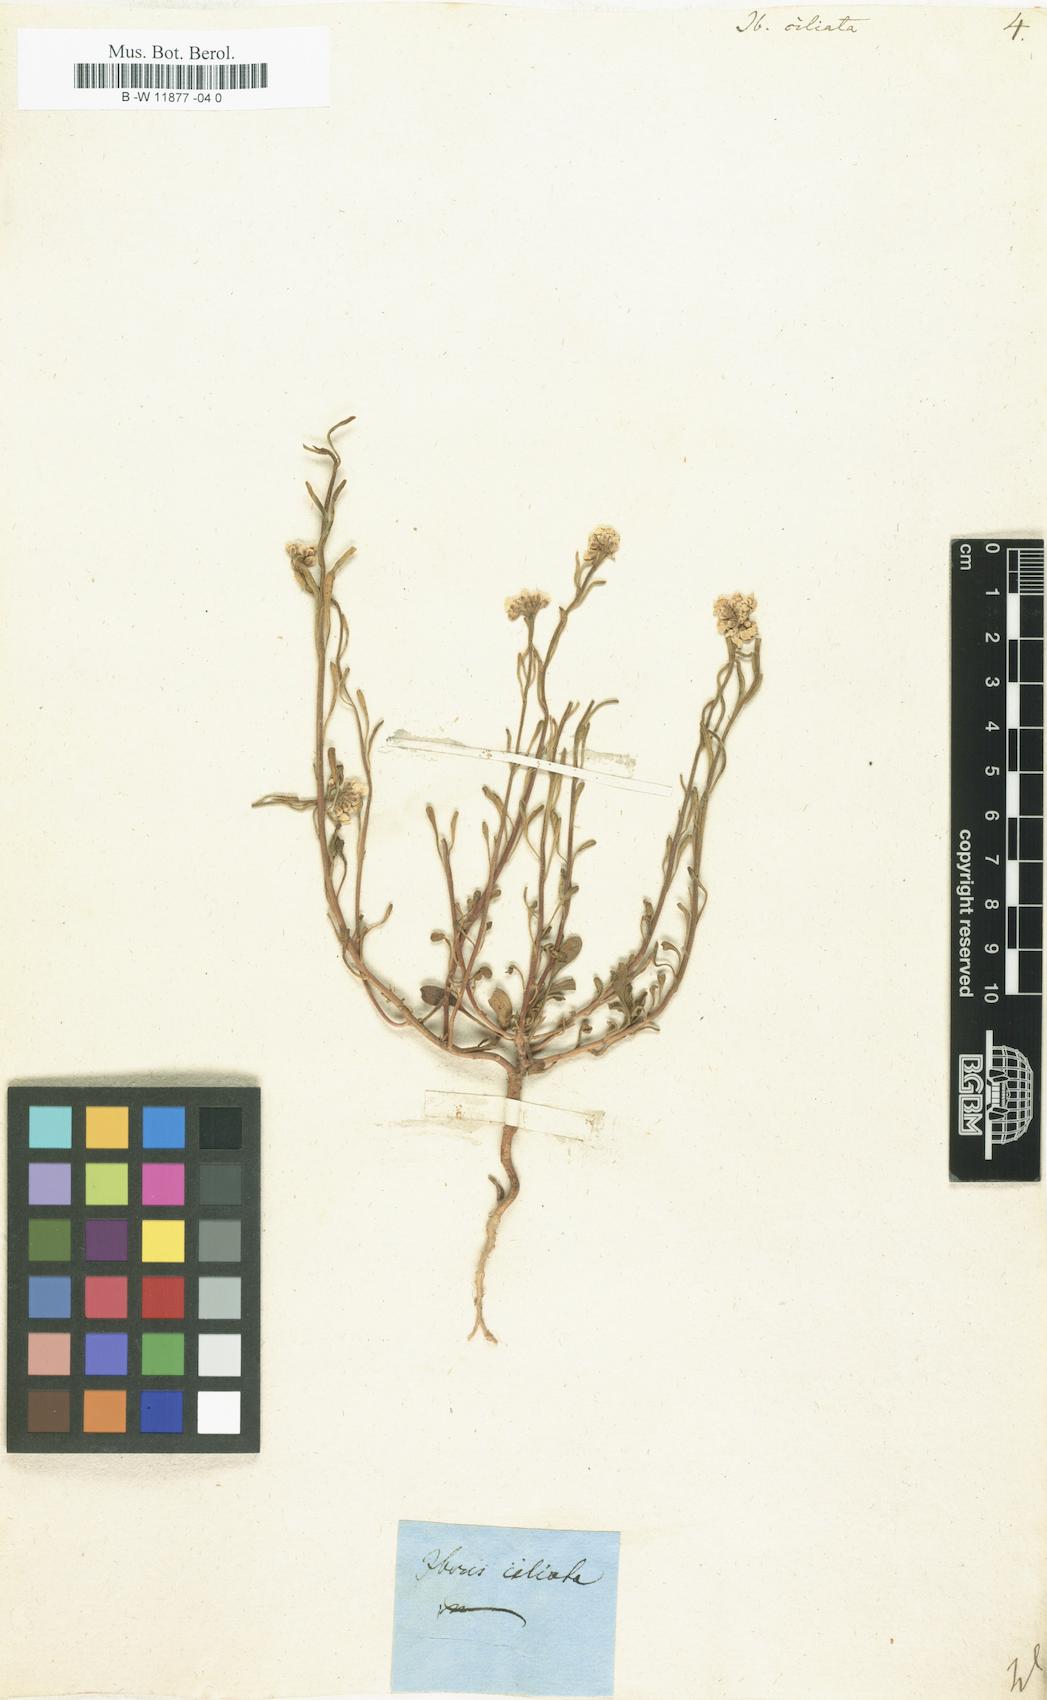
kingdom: Plantae
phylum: Tracheophyta
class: Magnoliopsida
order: Brassicales
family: Brassicaceae
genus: Iberis
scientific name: Iberis ciliata
